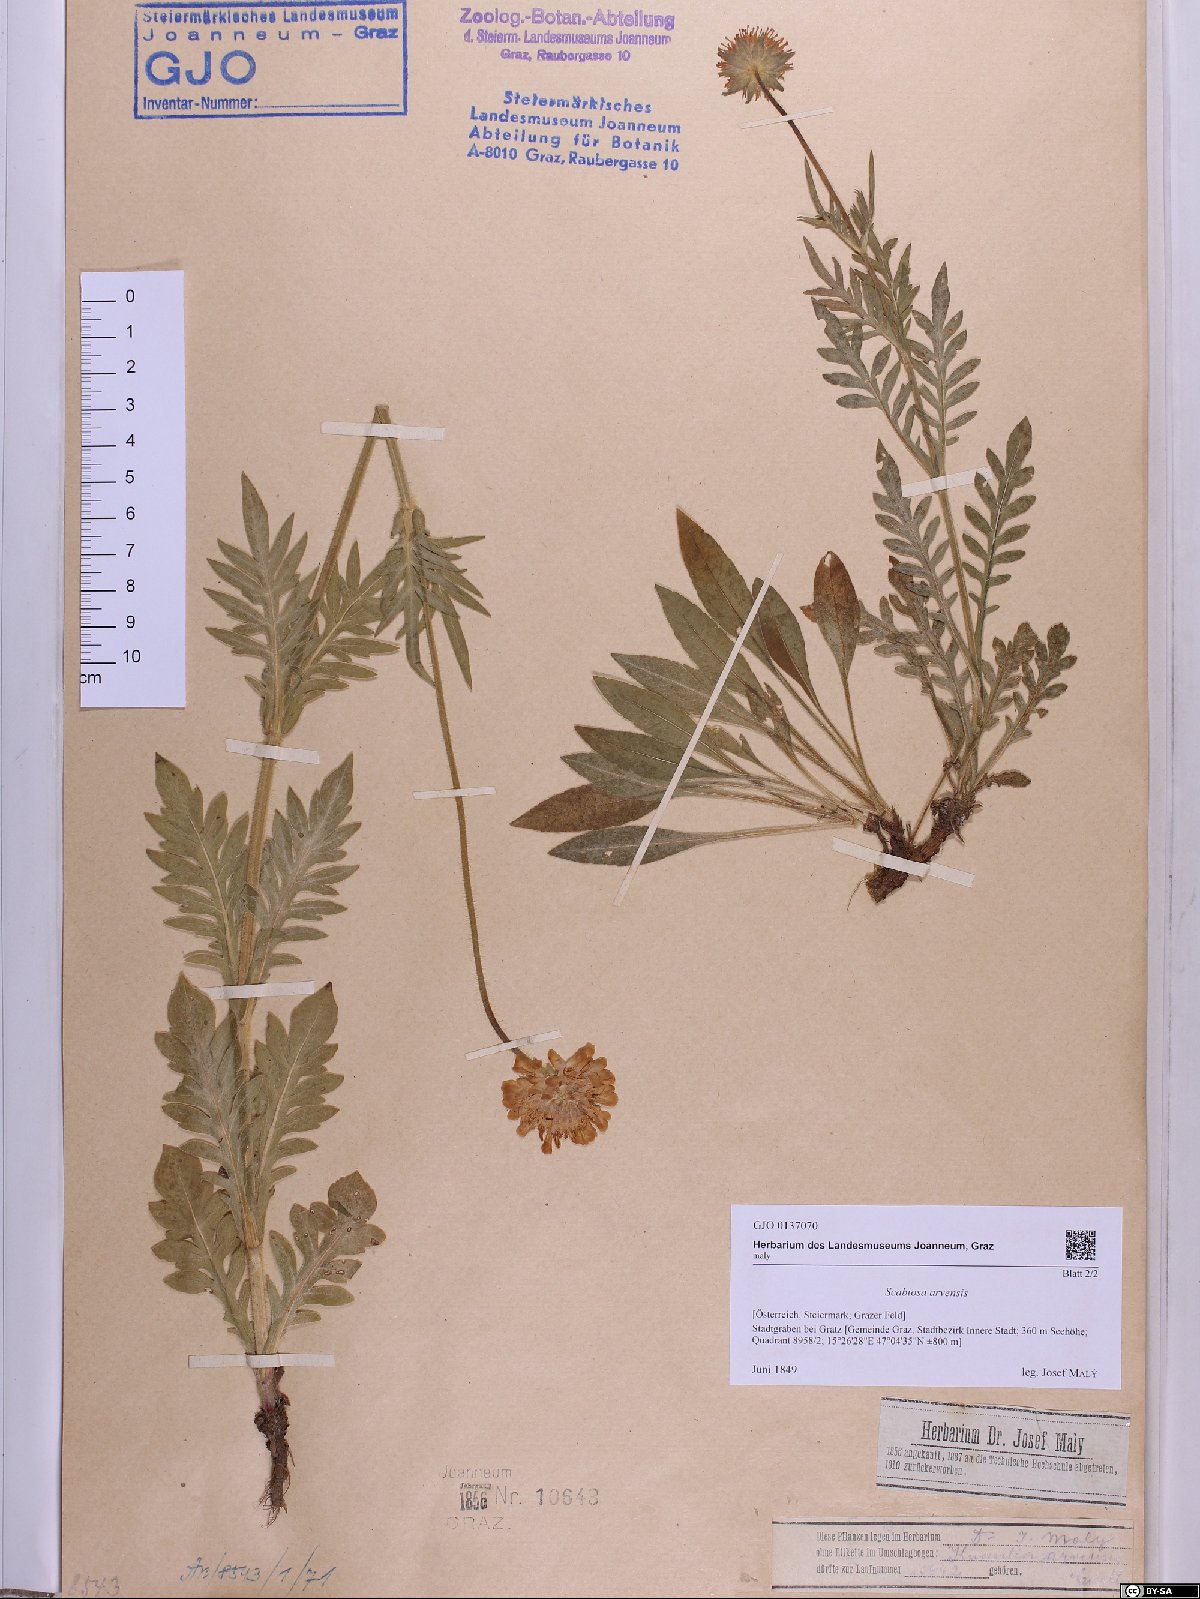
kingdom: Plantae
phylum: Tracheophyta
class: Magnoliopsida
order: Dipsacales
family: Caprifoliaceae
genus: Knautia
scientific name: Knautia arvensis
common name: Field scabiosa
